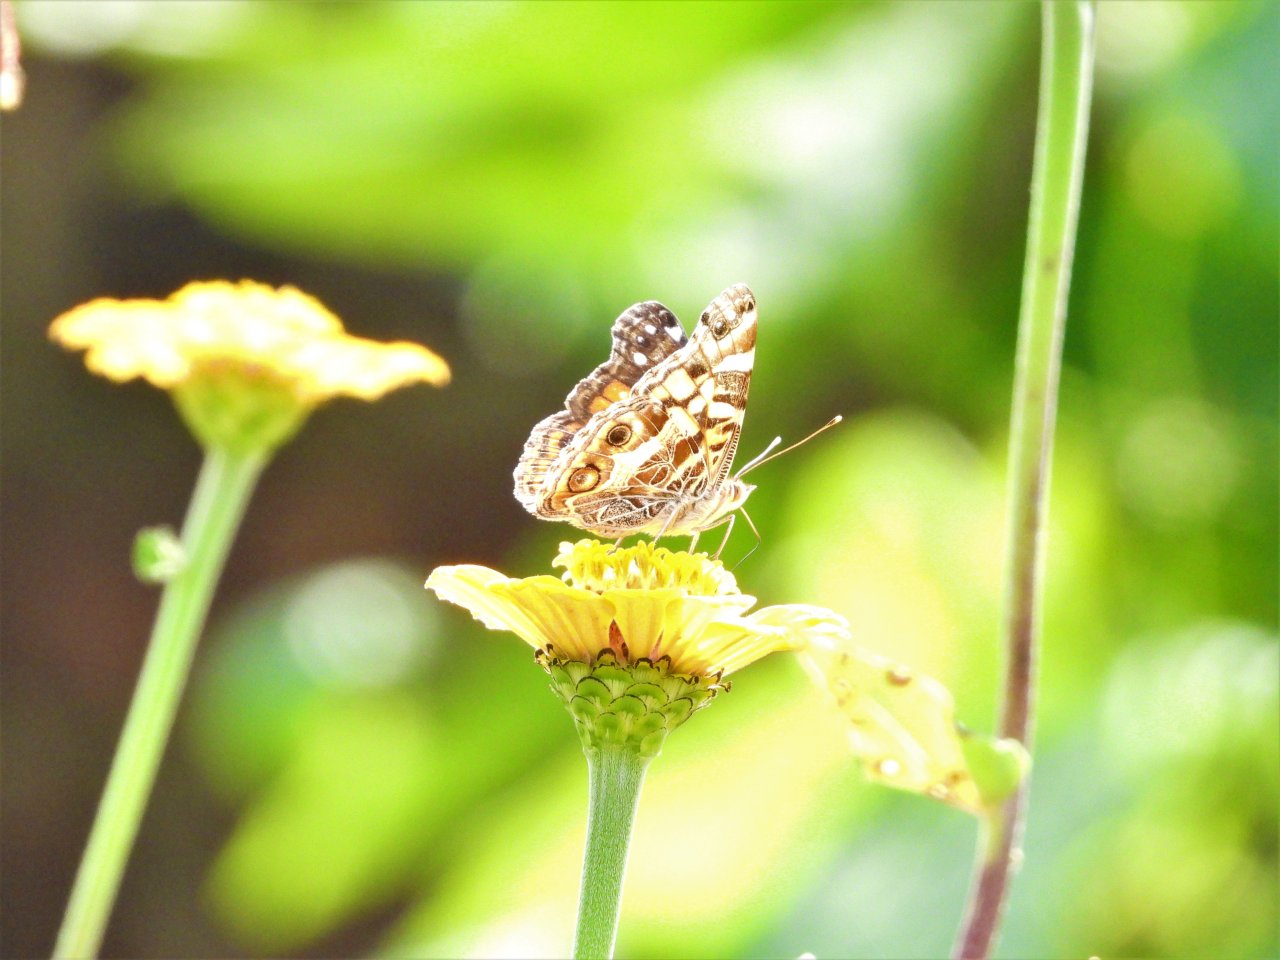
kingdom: Animalia
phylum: Arthropoda
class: Insecta
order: Lepidoptera
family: Nymphalidae
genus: Vanessa
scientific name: Vanessa virginiensis
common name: American Lady
